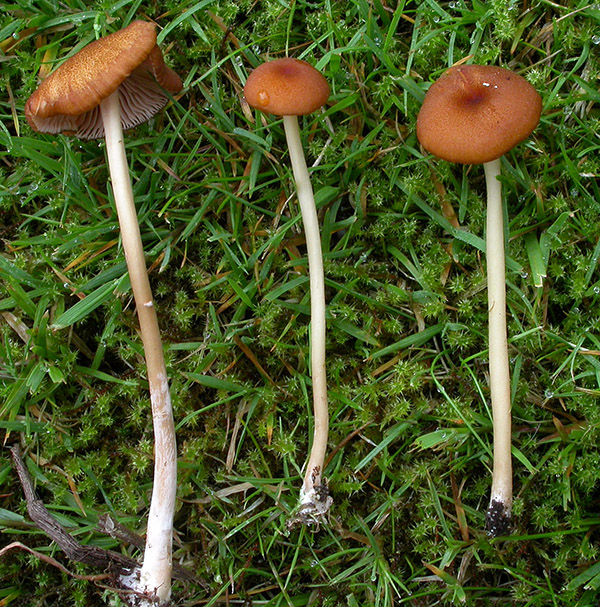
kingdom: Fungi
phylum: Basidiomycota
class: Agaricomycetes
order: Agaricales
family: Entolomataceae
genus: Entoloma
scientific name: Entoloma formosum
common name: brungul rødblad
